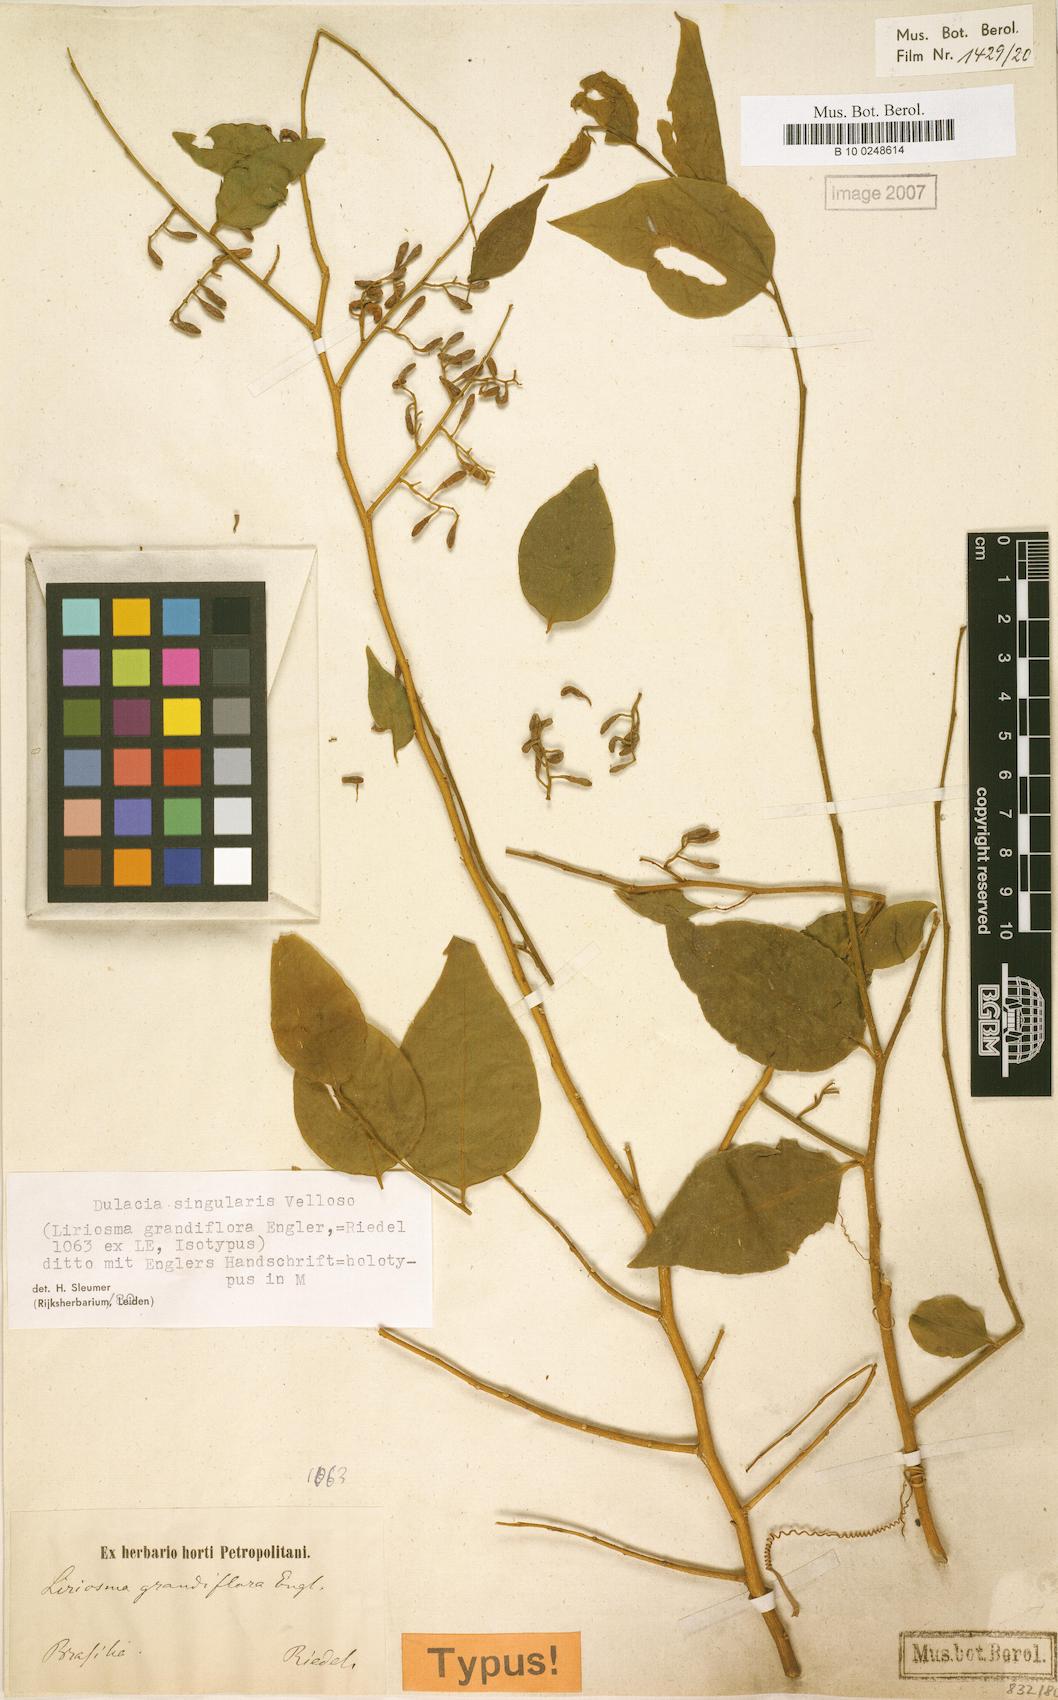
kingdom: Plantae
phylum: Tracheophyta
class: Magnoliopsida
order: Santalales
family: Olacaceae
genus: Dulacia
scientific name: Dulacia singularis
